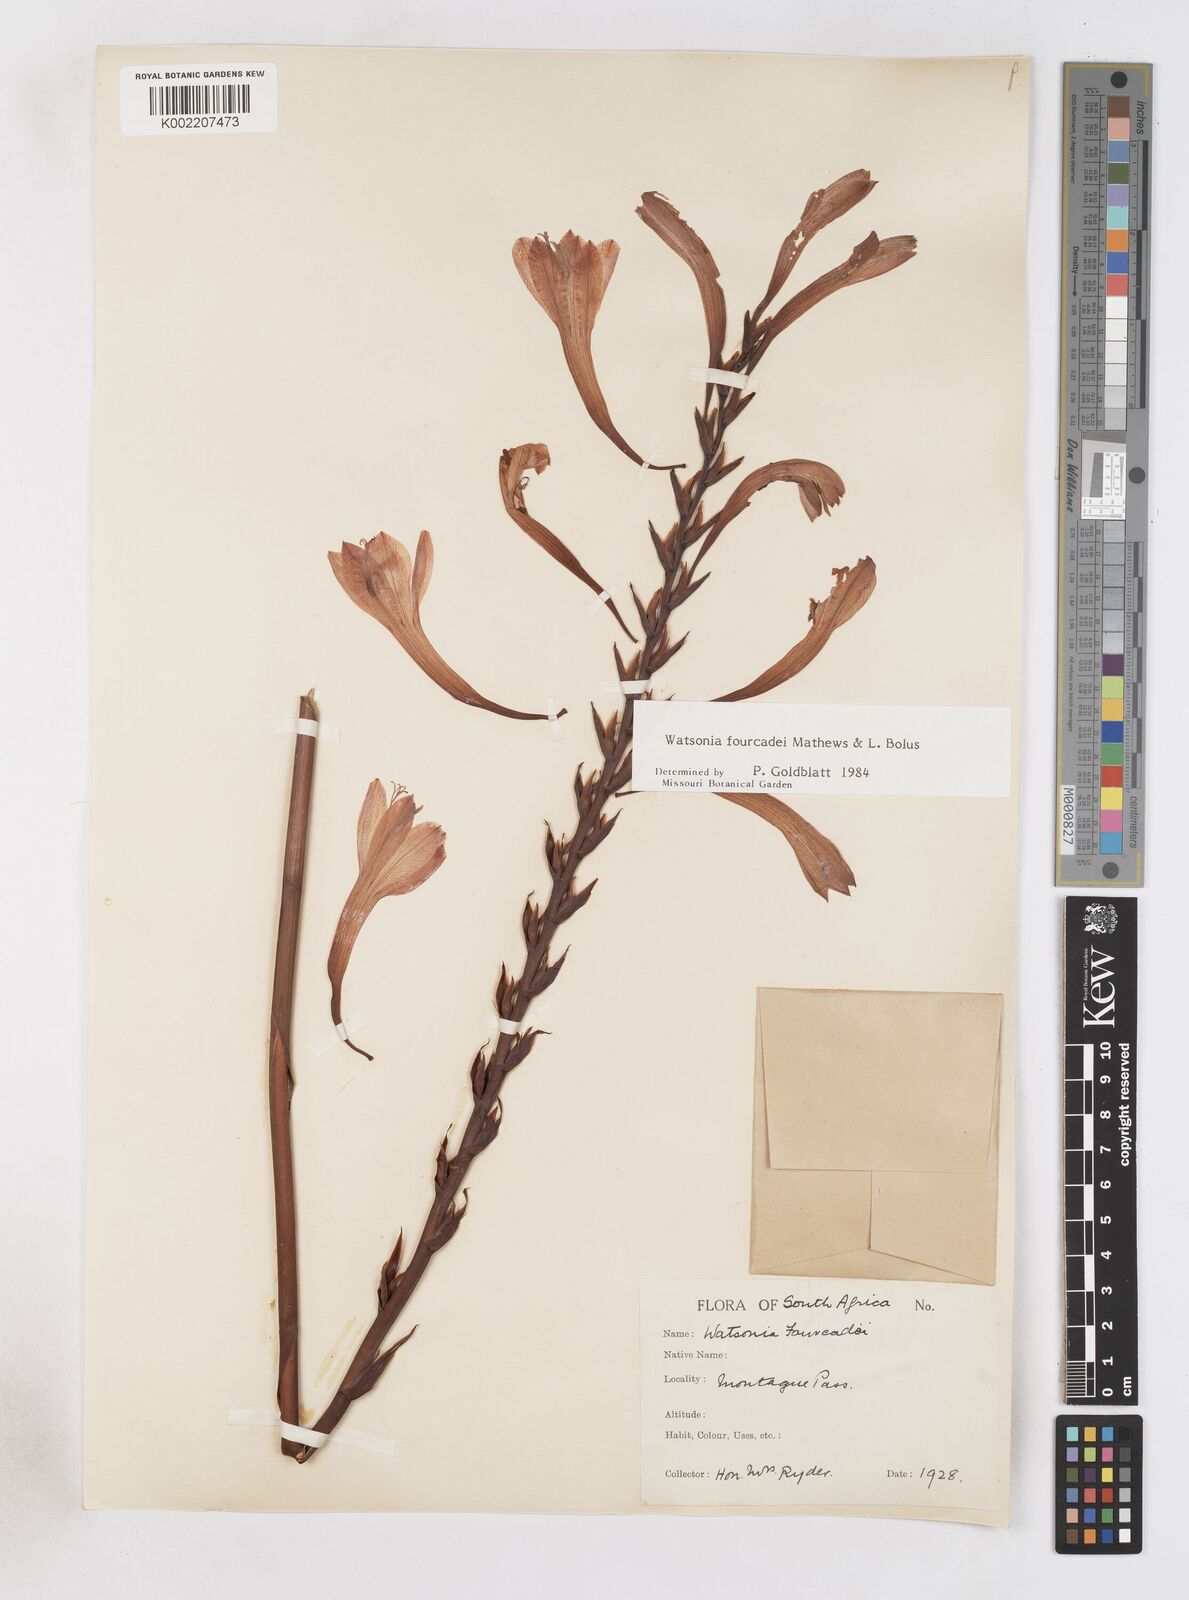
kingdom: Plantae
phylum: Tracheophyta
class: Liliopsida
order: Asparagales
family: Iridaceae
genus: Watsonia
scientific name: Watsonia fourcadei
